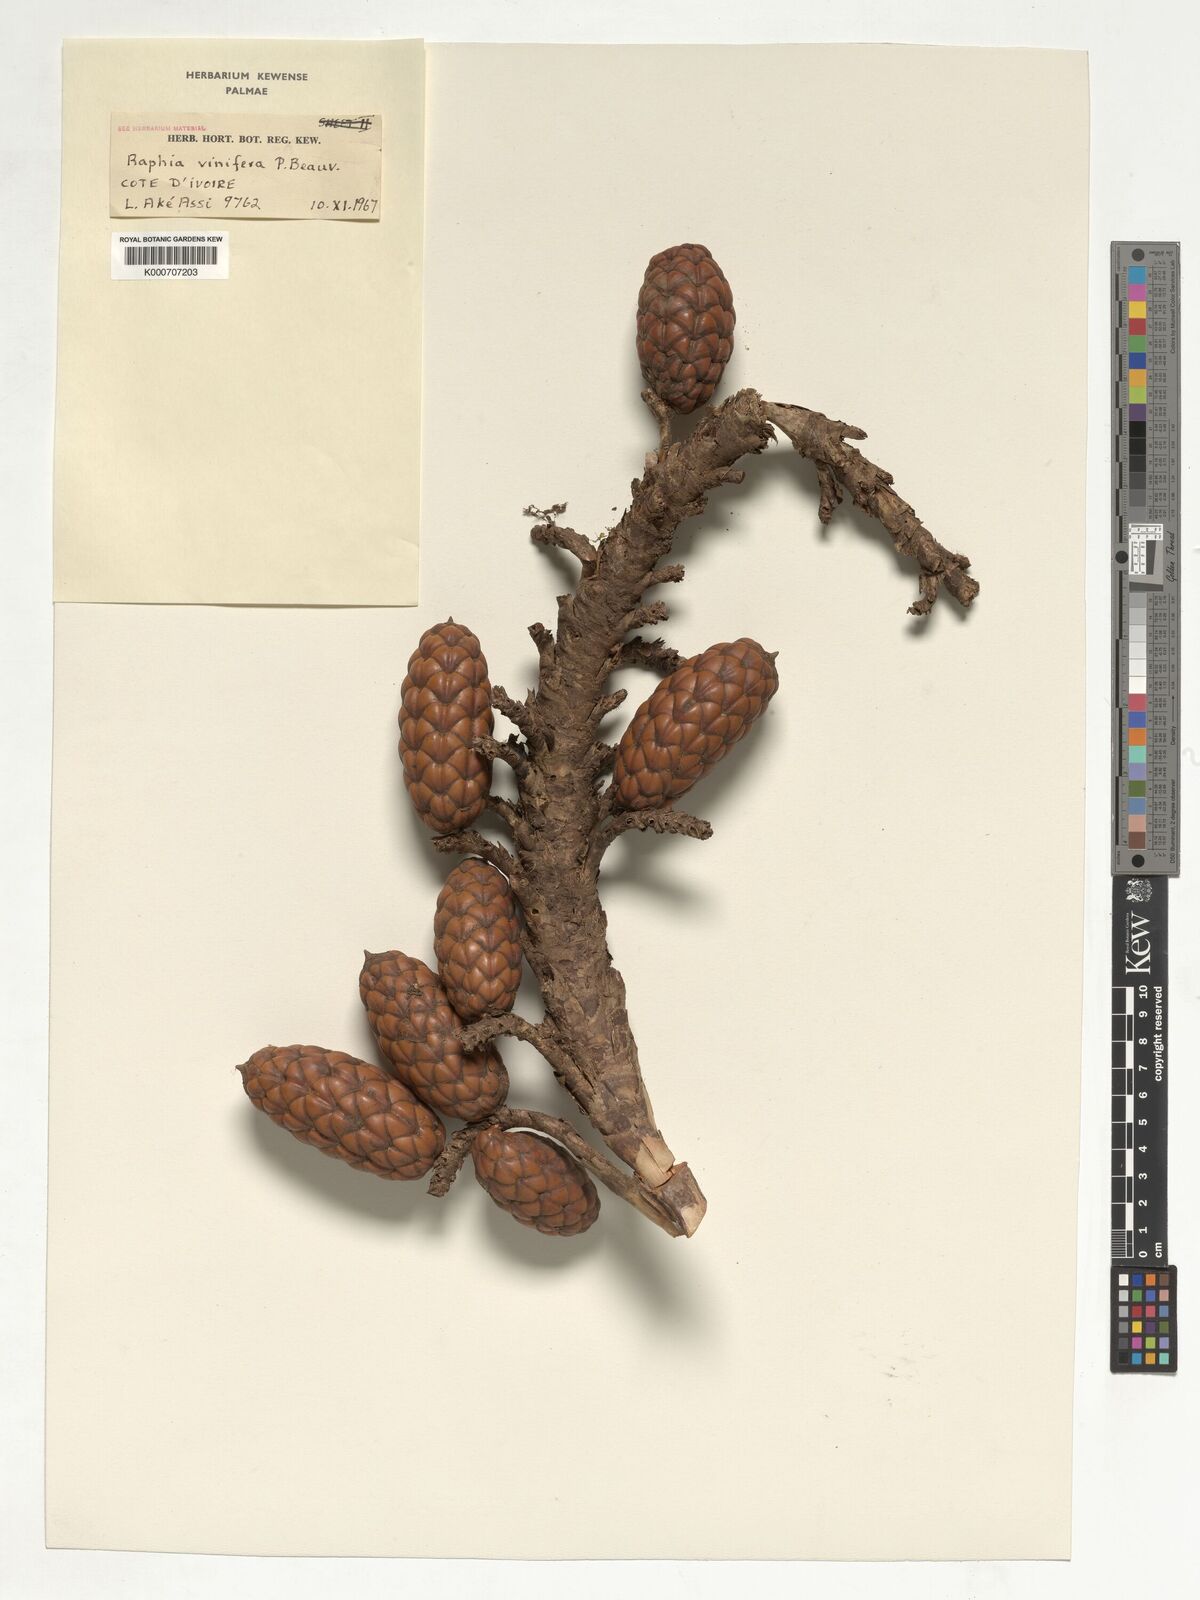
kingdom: Plantae
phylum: Tracheophyta
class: Liliopsida
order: Arecales
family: Arecaceae
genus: Raphia
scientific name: Raphia vinifera
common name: Raphia palm
